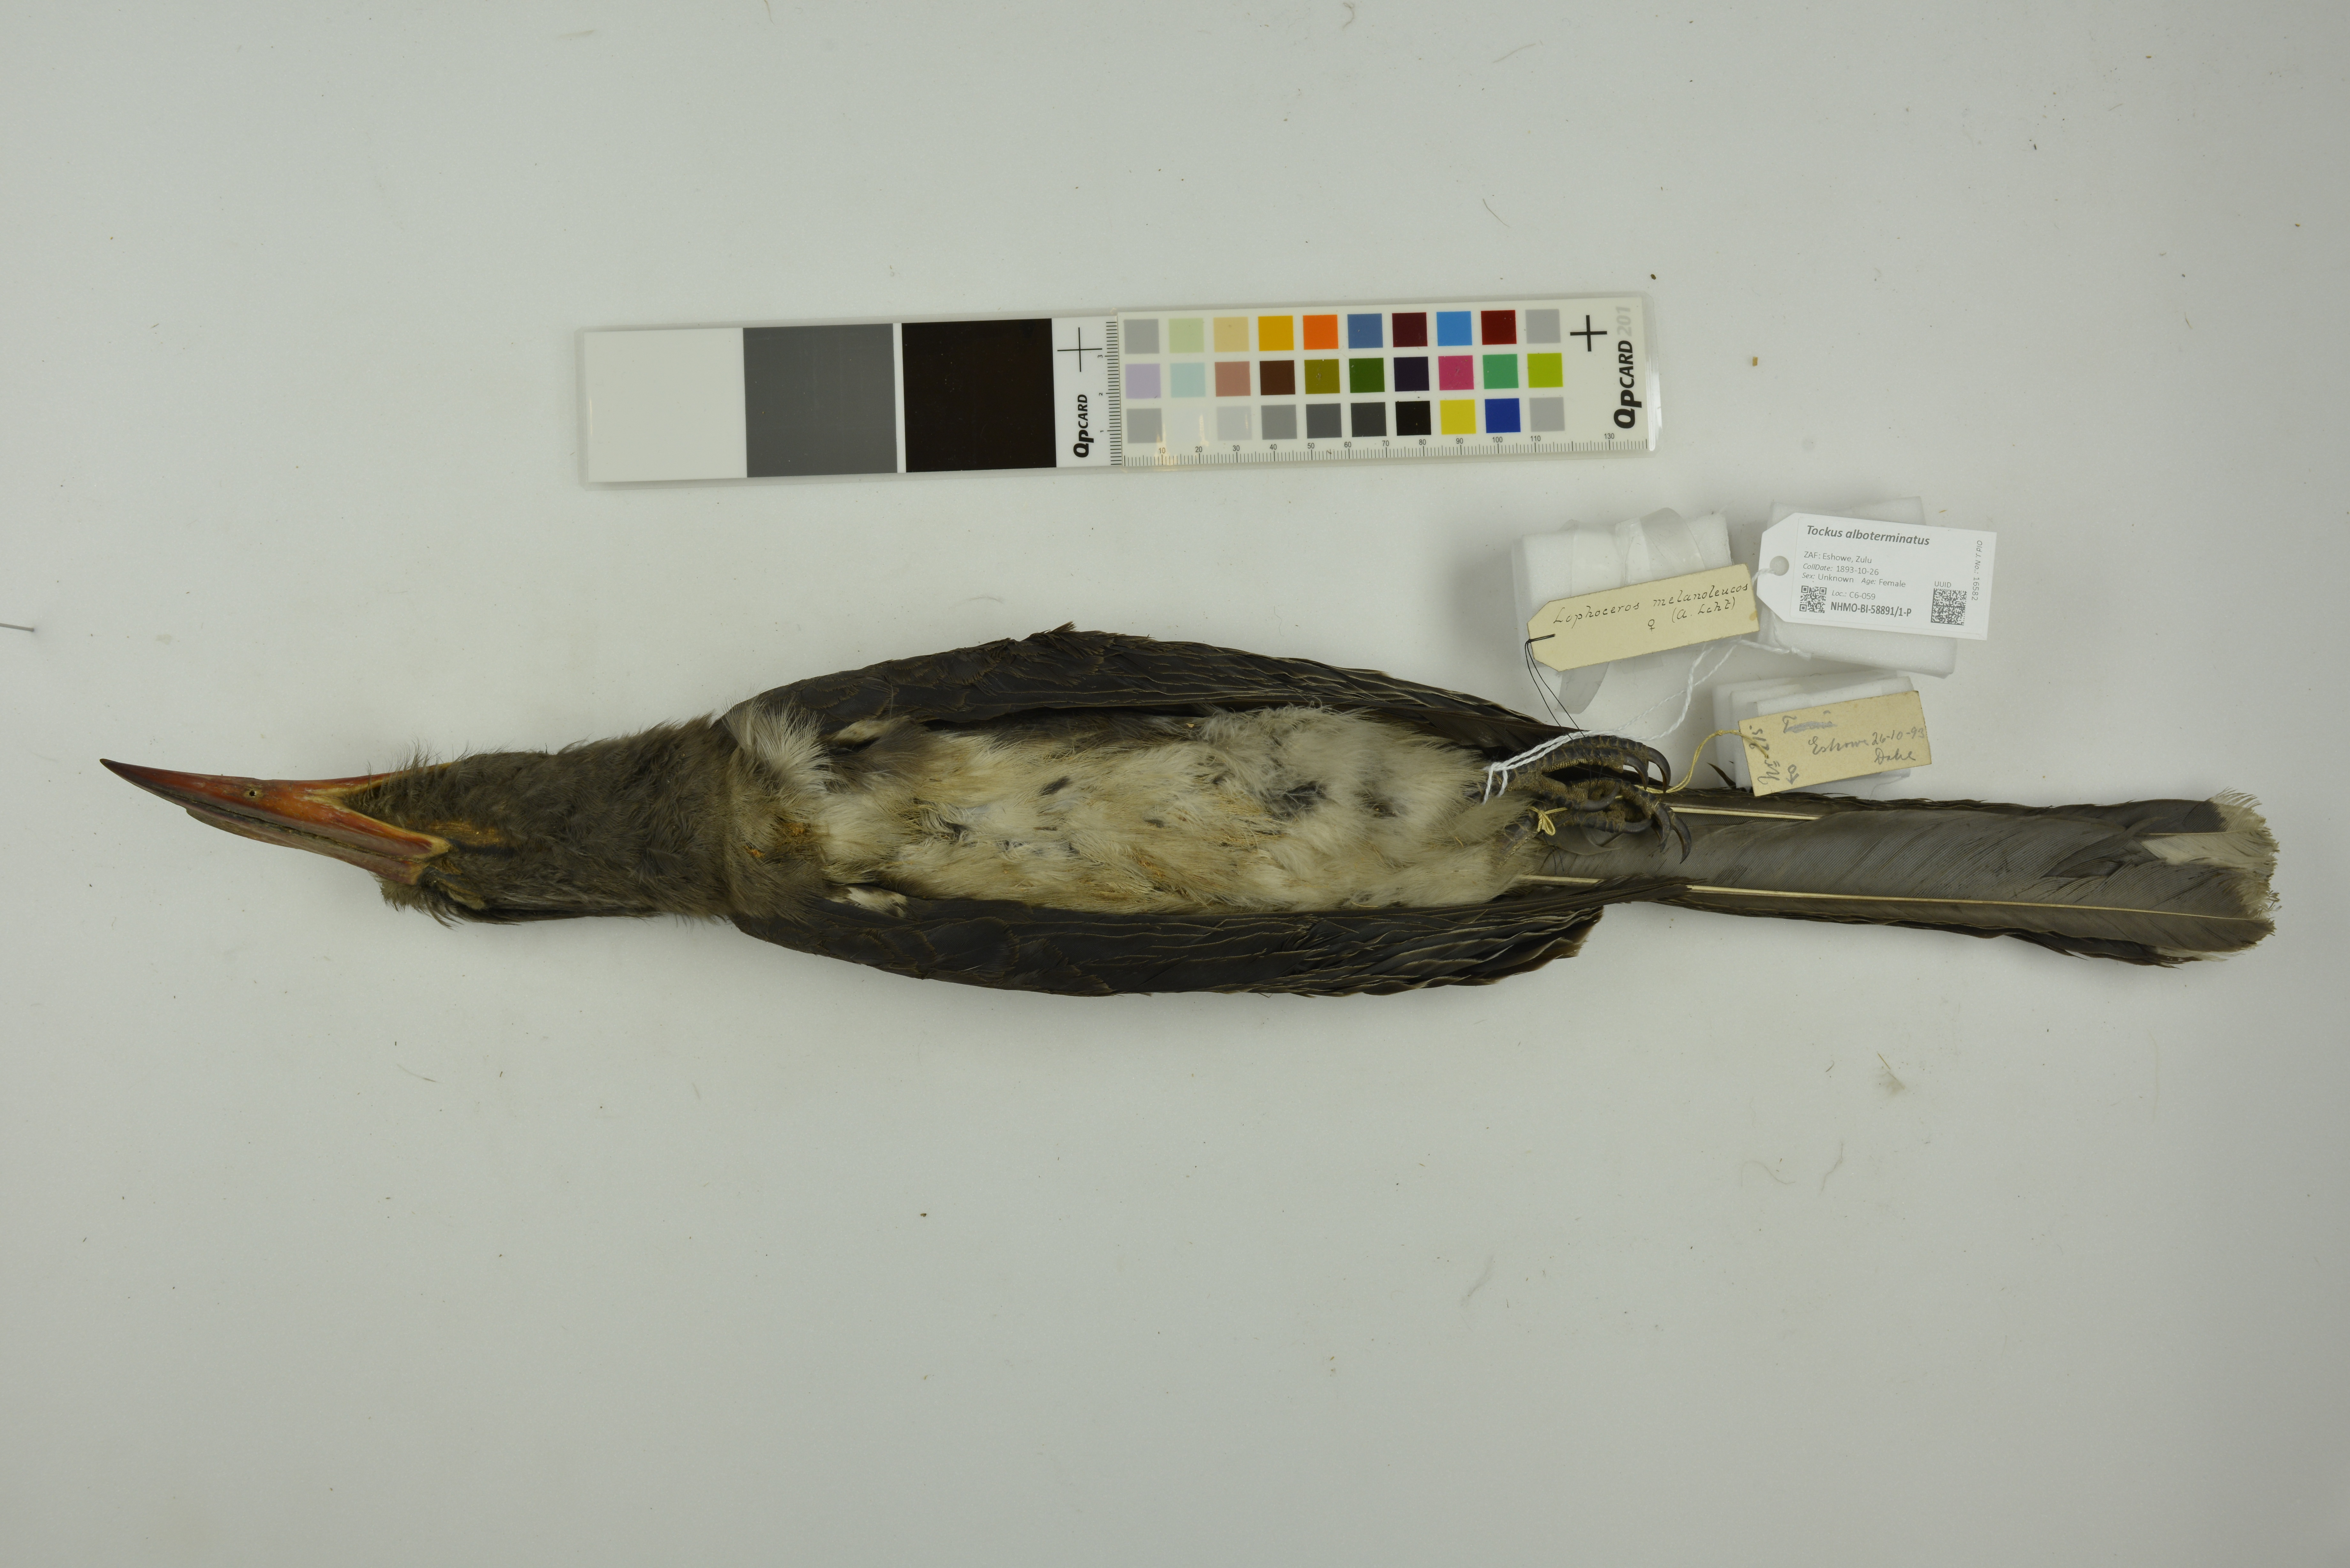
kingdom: Animalia
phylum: Chordata
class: Aves
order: Bucerotiformes
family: Bucerotidae
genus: Lophoceros
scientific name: Lophoceros alboterminatus
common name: Crowned hornbill
